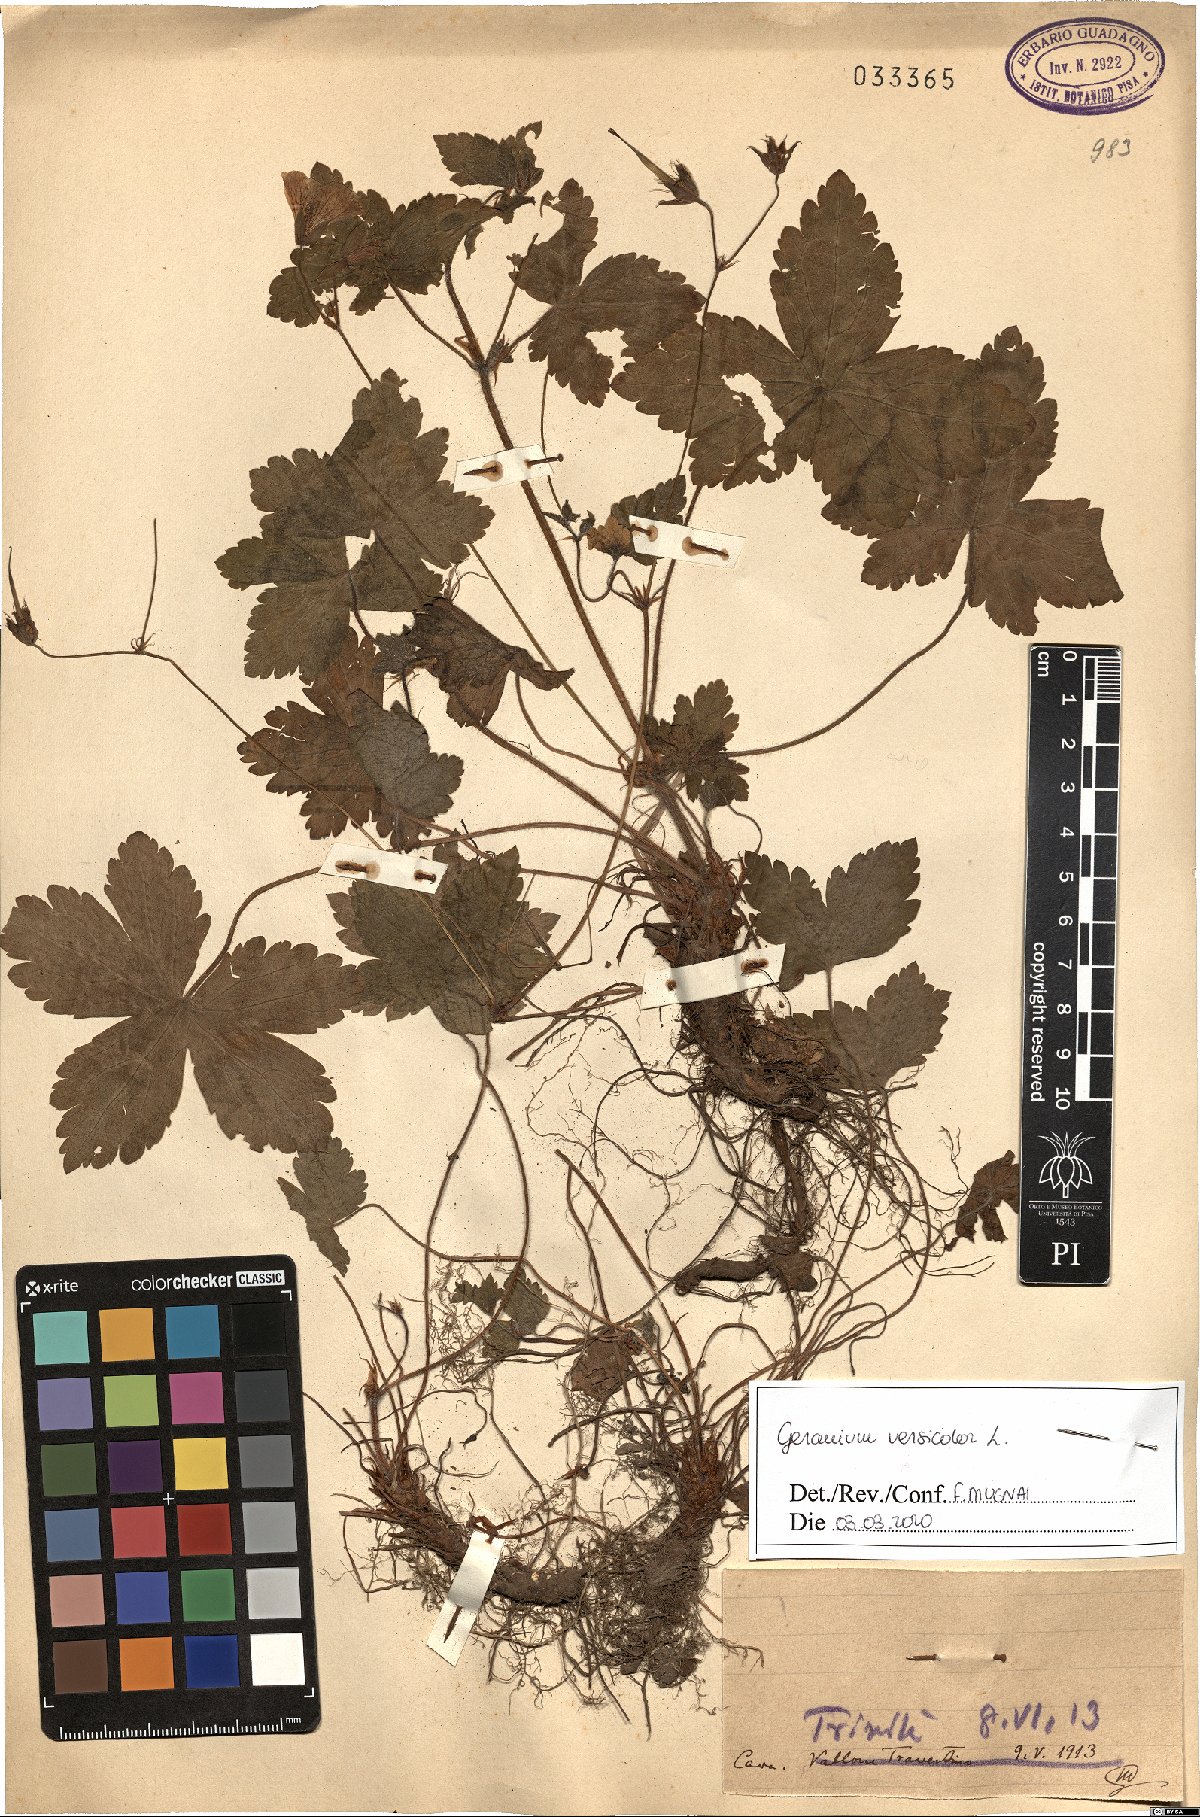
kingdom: Plantae
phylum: Tracheophyta
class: Magnoliopsida
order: Geraniales
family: Geraniaceae
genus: Geranium
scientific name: Geranium versicolor
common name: Pencilled crane's-bill
